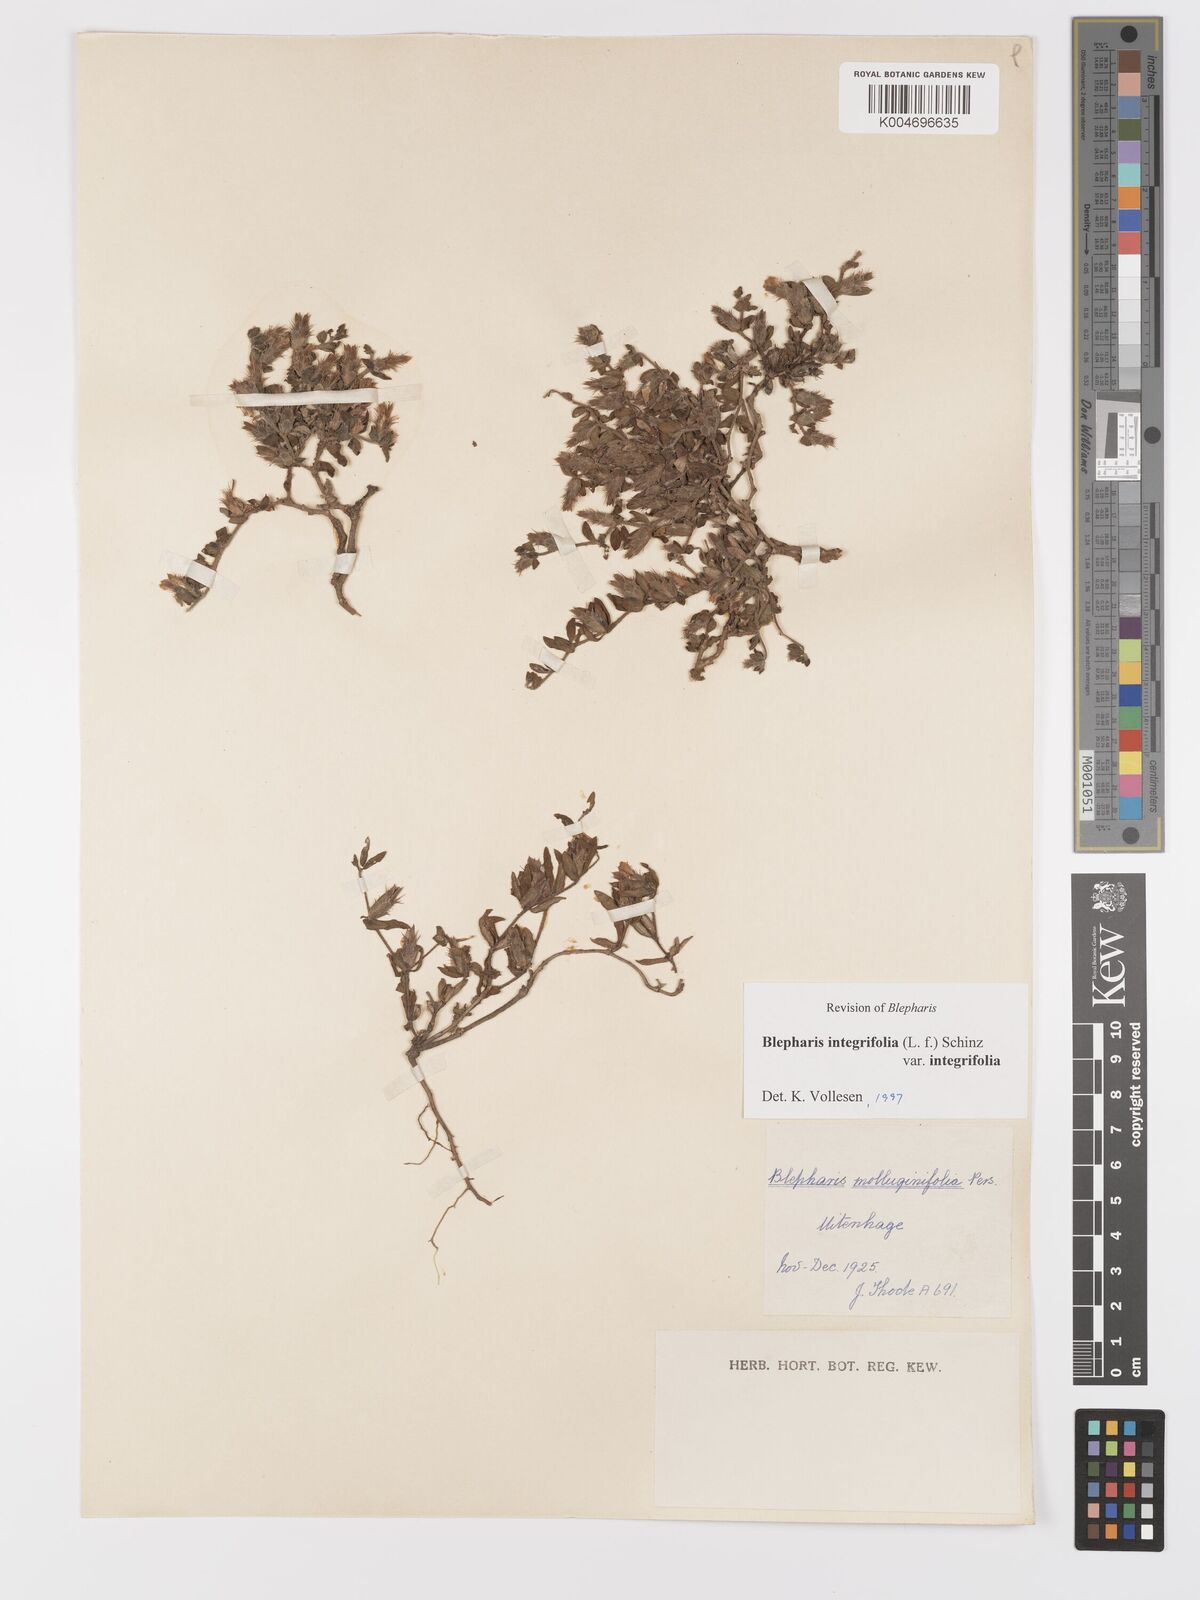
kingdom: Plantae
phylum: Tracheophyta
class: Magnoliopsida
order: Lamiales
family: Acanthaceae
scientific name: Acanthaceae
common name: Acanthaceae
